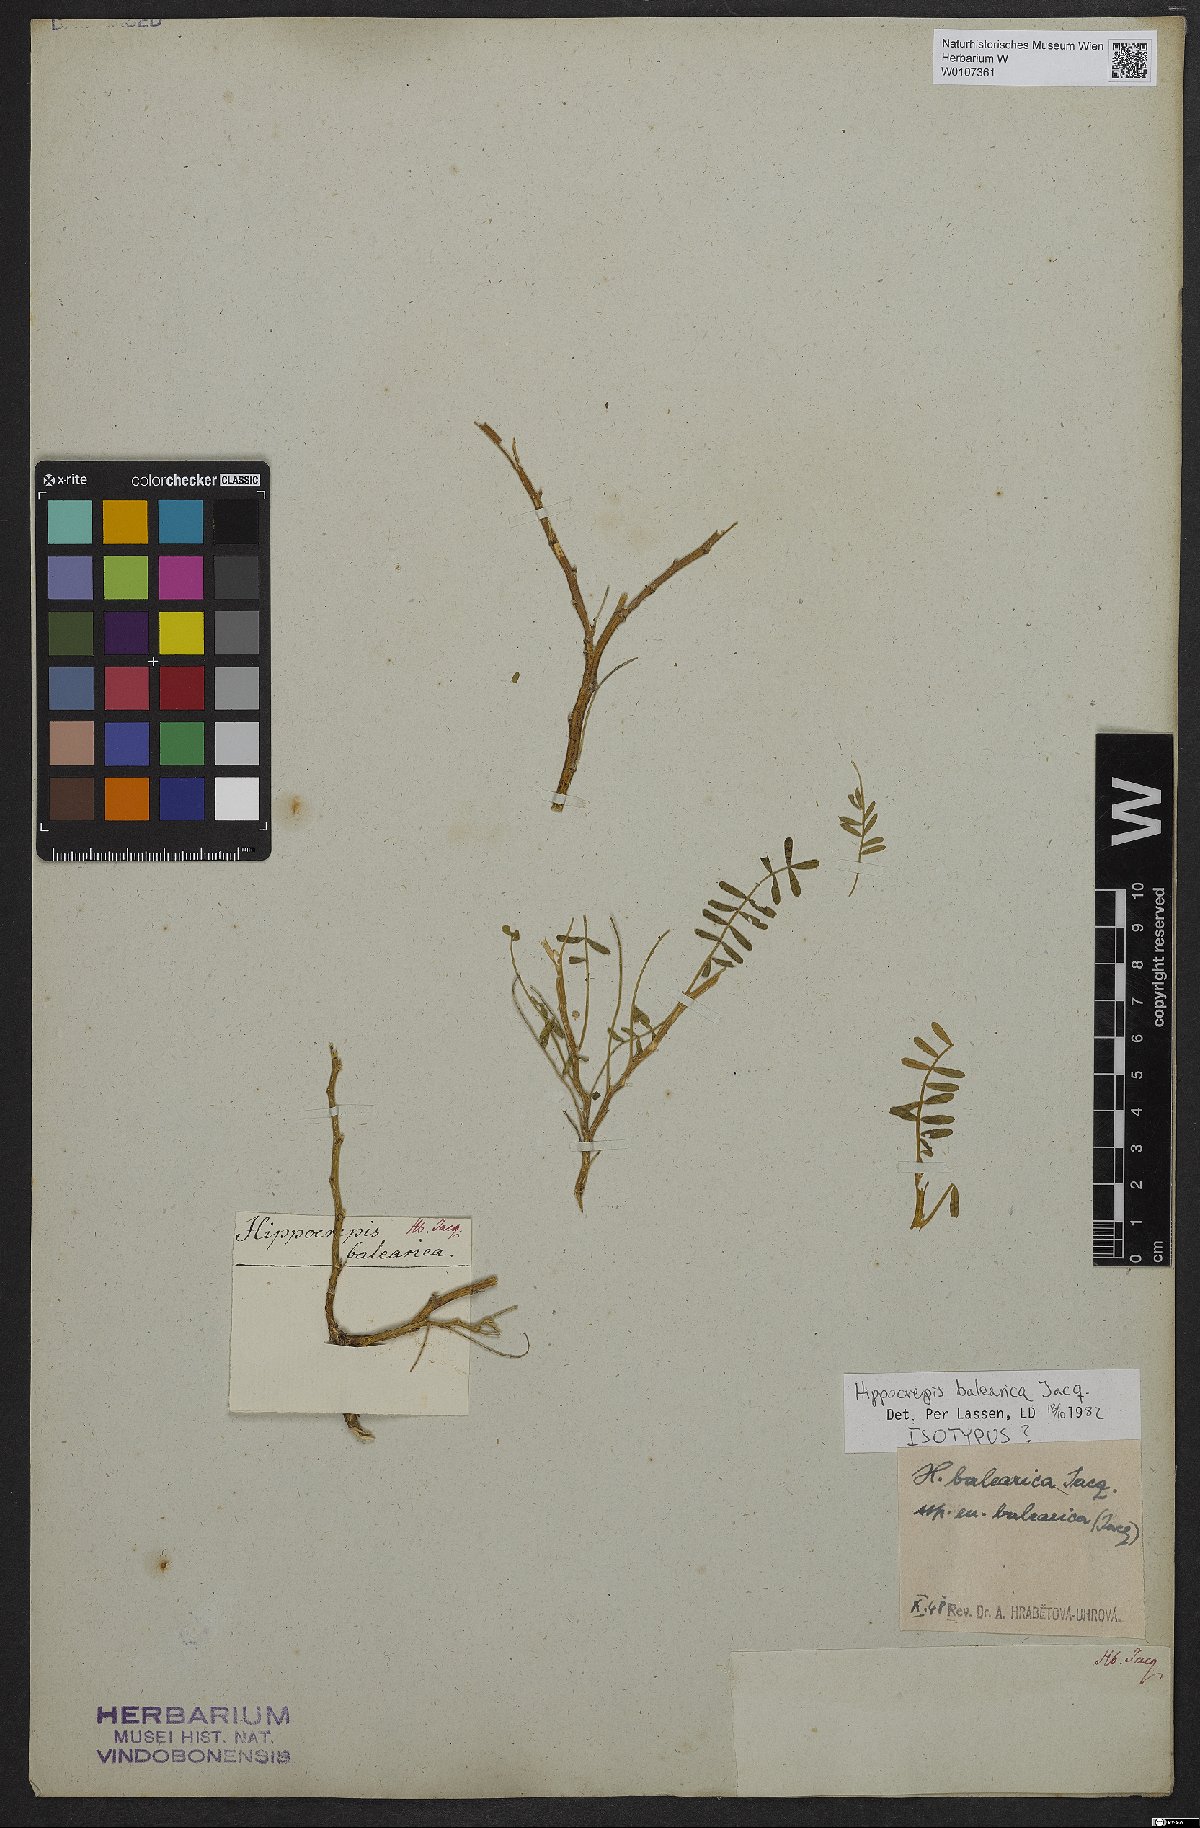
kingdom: Plantae
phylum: Tracheophyta
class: Magnoliopsida
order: Fabales
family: Fabaceae
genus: Hippocrepis
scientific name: Hippocrepis balearica
